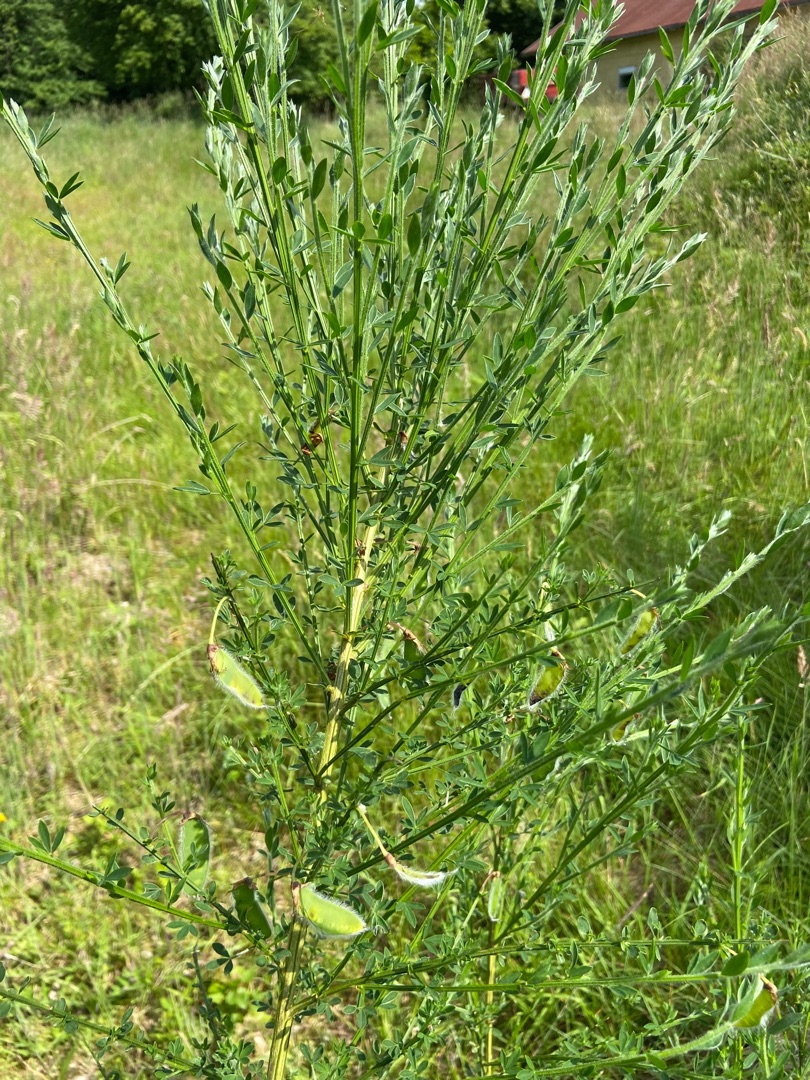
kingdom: Plantae
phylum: Tracheophyta
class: Magnoliopsida
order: Fabales
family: Fabaceae
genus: Cytisus
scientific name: Cytisus scoparius
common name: Almindelig gyvel
